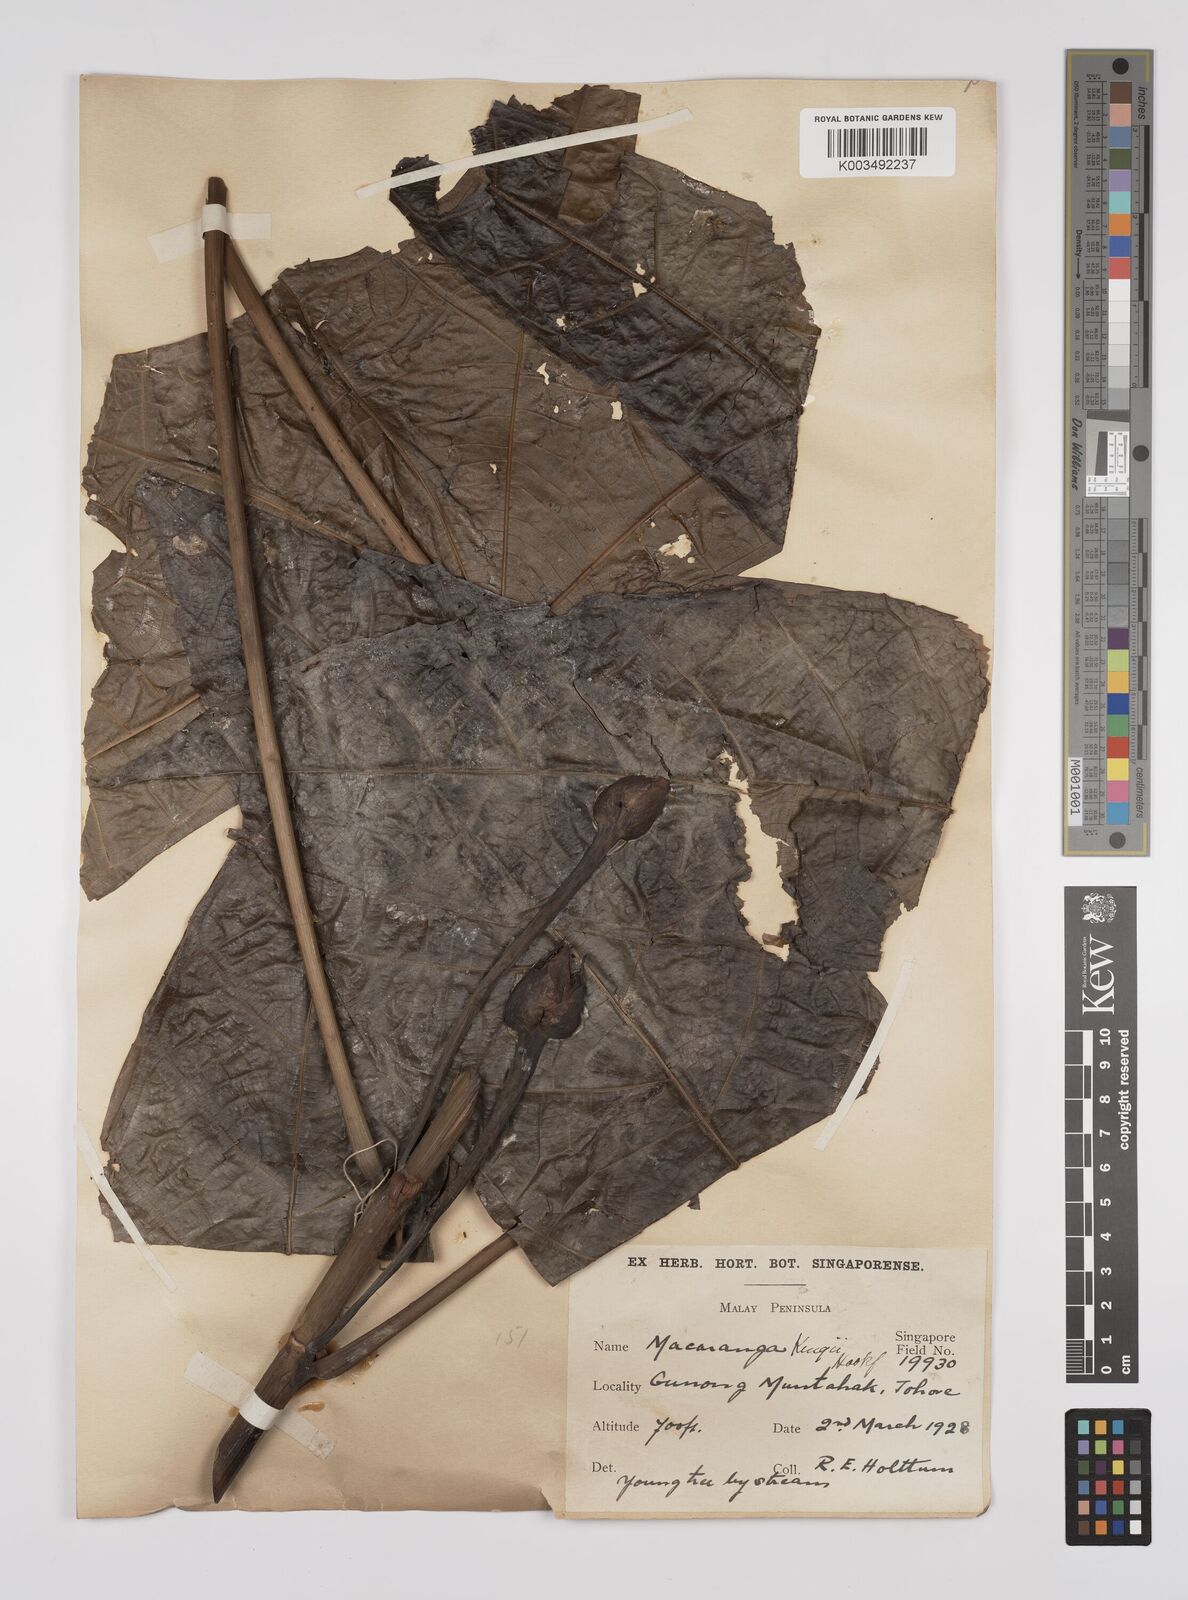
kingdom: Plantae
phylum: Tracheophyta
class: Magnoliopsida
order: Malpighiales
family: Euphorbiaceae
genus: Macaranga
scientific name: Macaranga kingii
